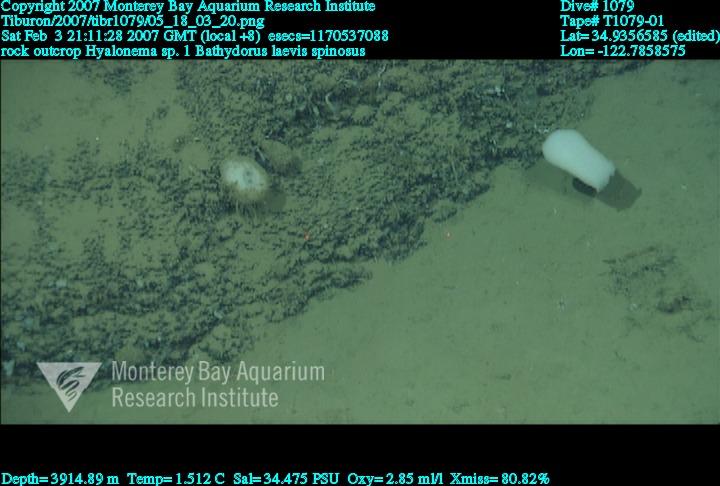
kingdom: Animalia
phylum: Porifera
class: Hexactinellida
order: Lyssacinosida
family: Rossellidae
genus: Bathydorus
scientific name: Bathydorus spinosus
